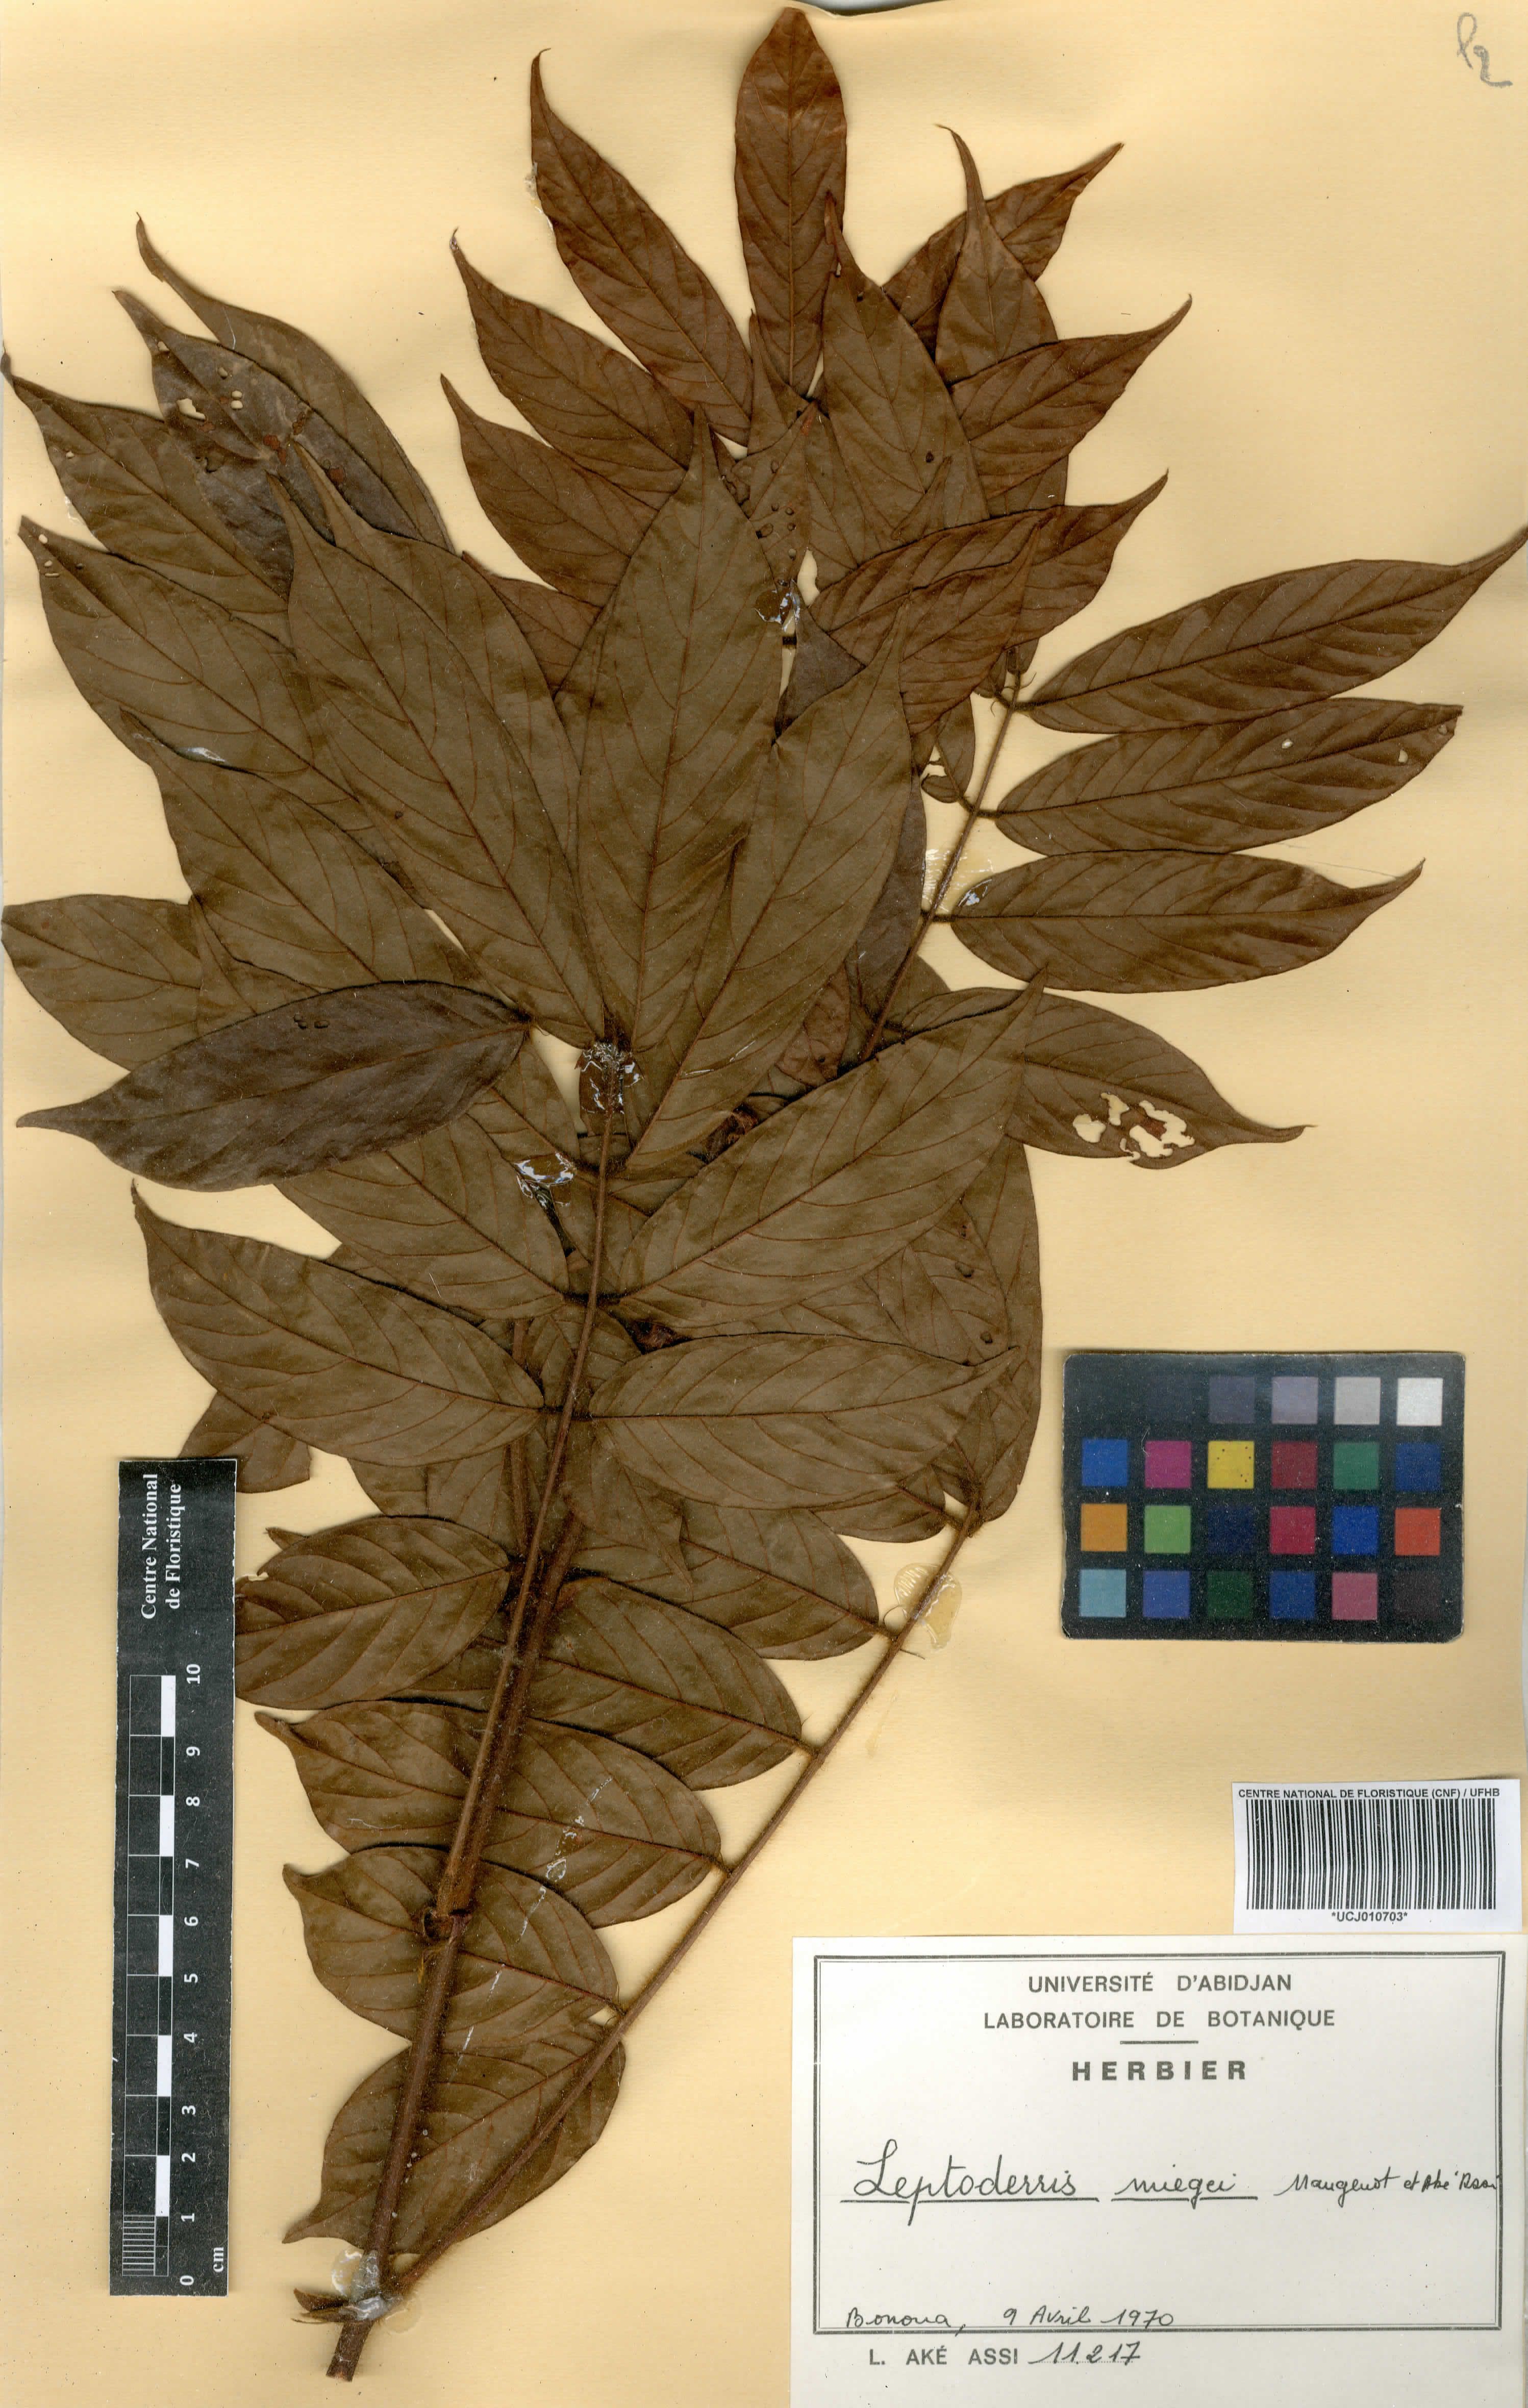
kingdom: Plantae
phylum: Tracheophyta
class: Magnoliopsida
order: Fabales
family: Fabaceae
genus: Leptoderris
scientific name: Leptoderris miegei
